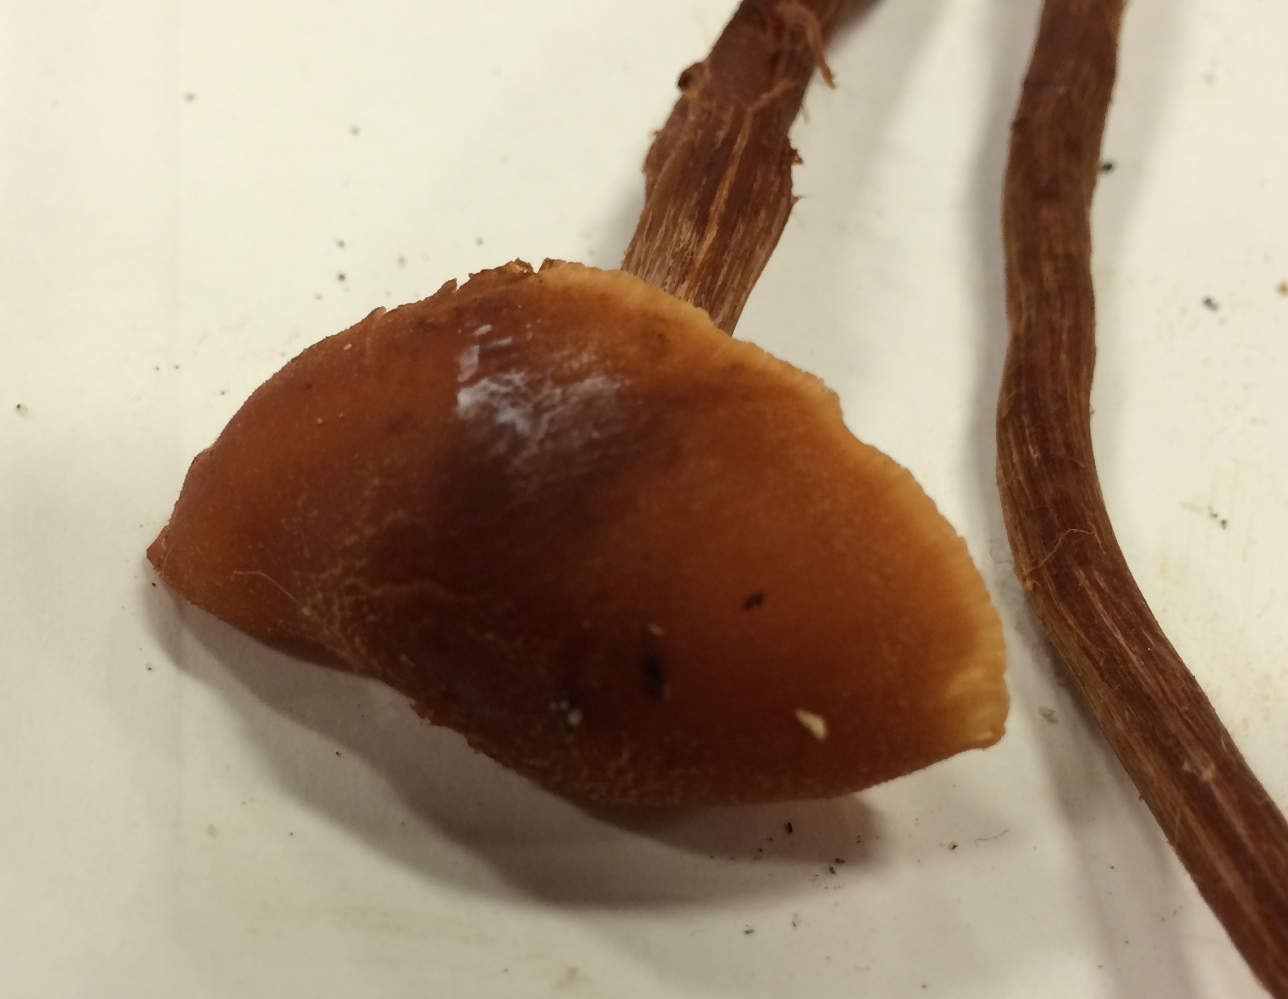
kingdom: Fungi
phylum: Basidiomycota
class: Agaricomycetes
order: Agaricales
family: Hydnangiaceae
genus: Laccaria
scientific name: Laccaria proxima
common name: stor ametysthat
